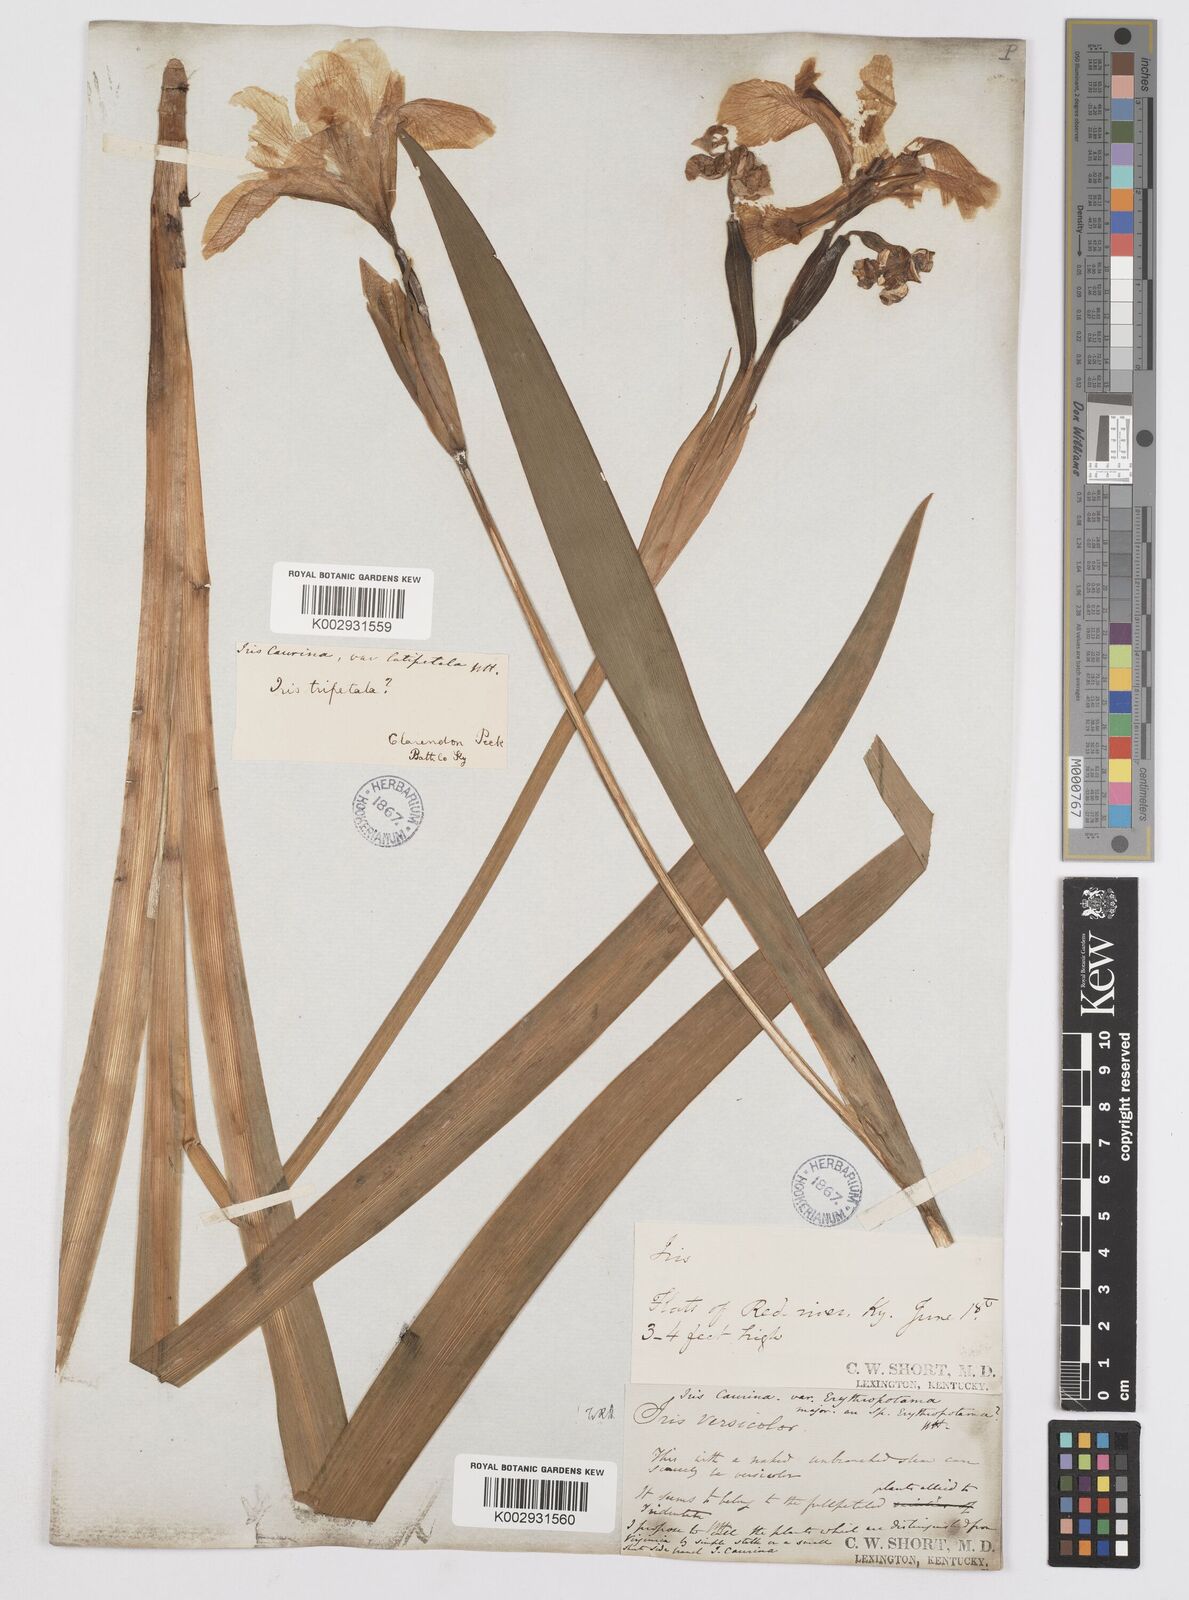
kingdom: Plantae
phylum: Tracheophyta
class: Liliopsida
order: Asparagales
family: Iridaceae
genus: Iris
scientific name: Iris virginica
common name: Southern blue flag
